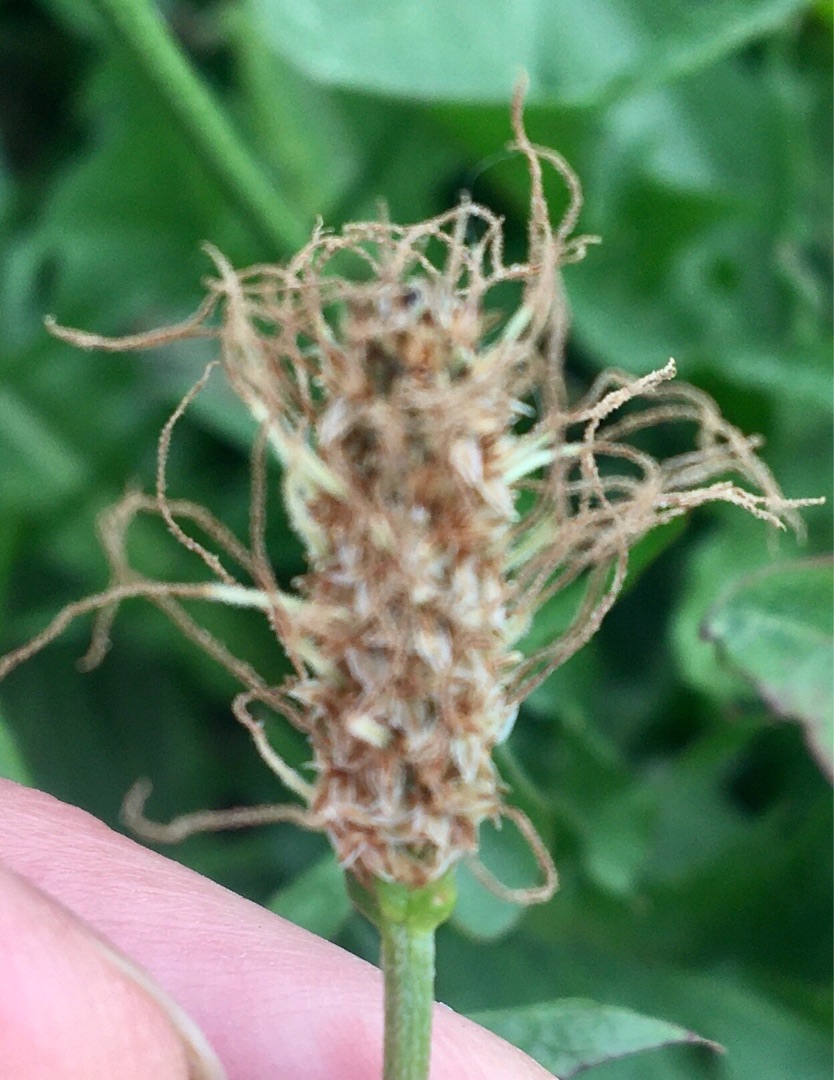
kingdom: Plantae
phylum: Tracheophyta
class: Magnoliopsida
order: Lamiales
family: Plantaginaceae
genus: Plantago
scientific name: Plantago lanceolata
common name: Lancet-vejbred
